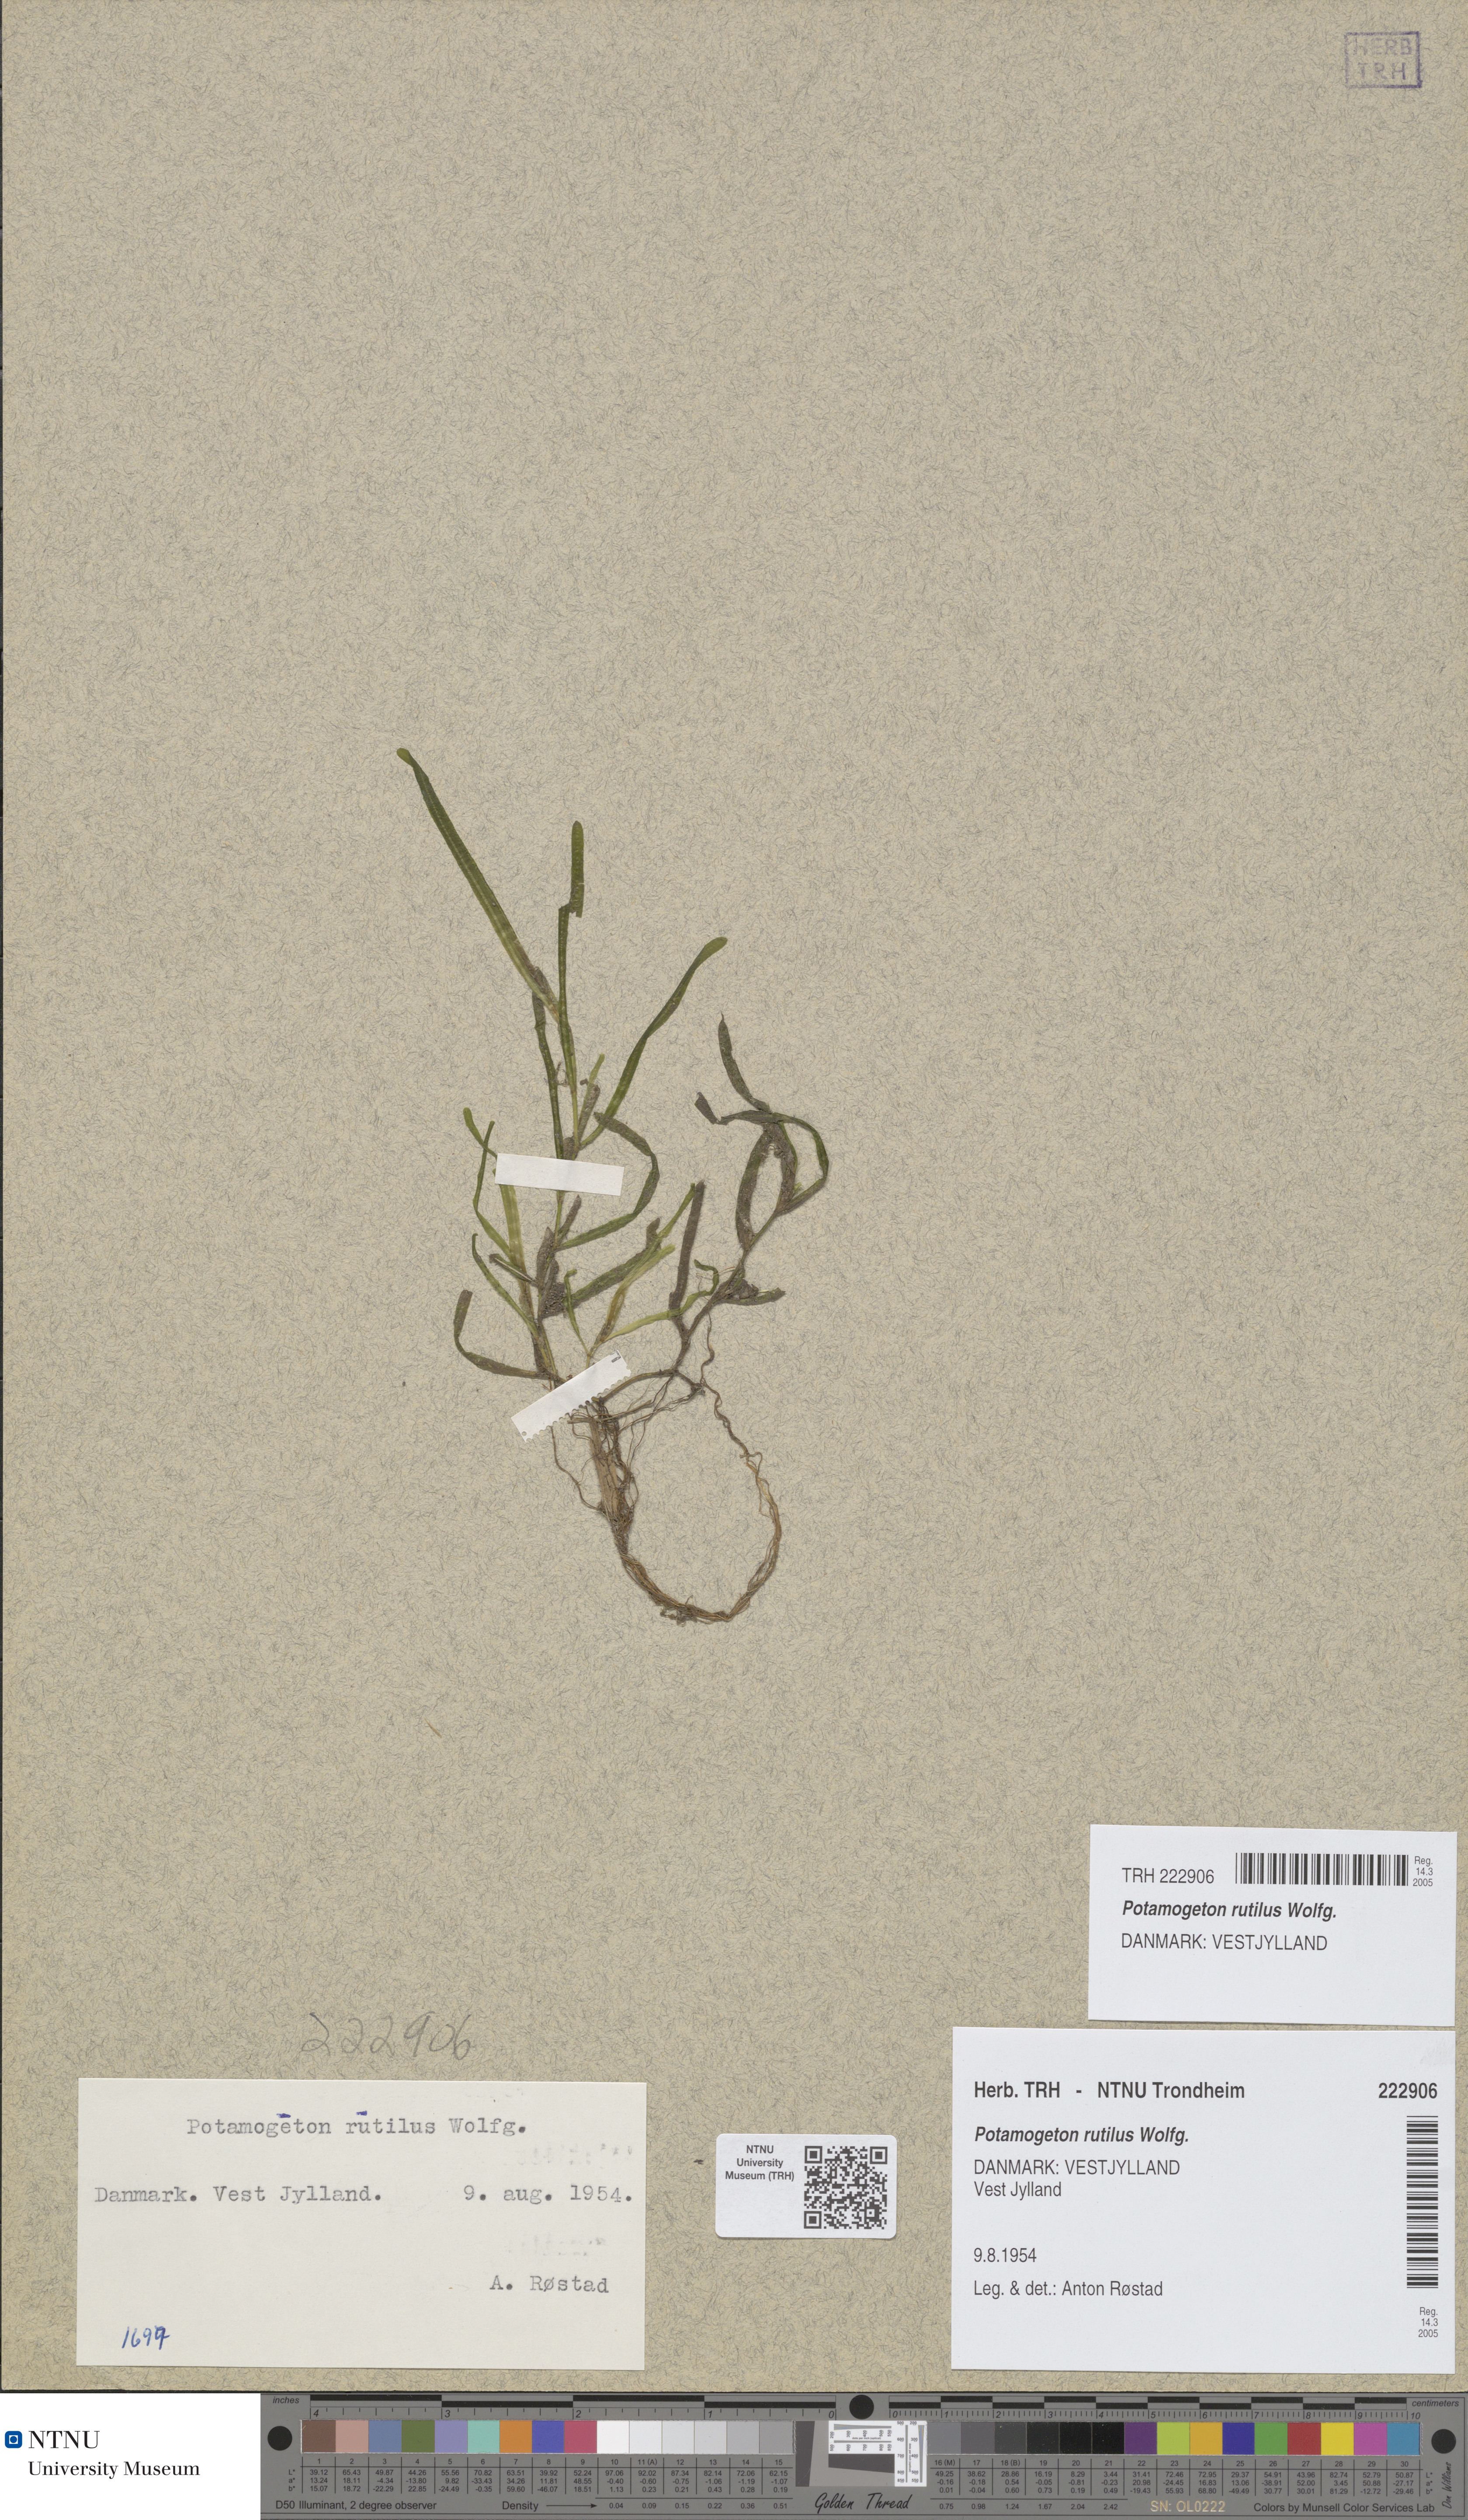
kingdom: Plantae
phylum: Tracheophyta
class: Liliopsida
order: Alismatales
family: Potamogetonaceae
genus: Potamogeton
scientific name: Potamogeton rutilus
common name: Shetland pondweed
